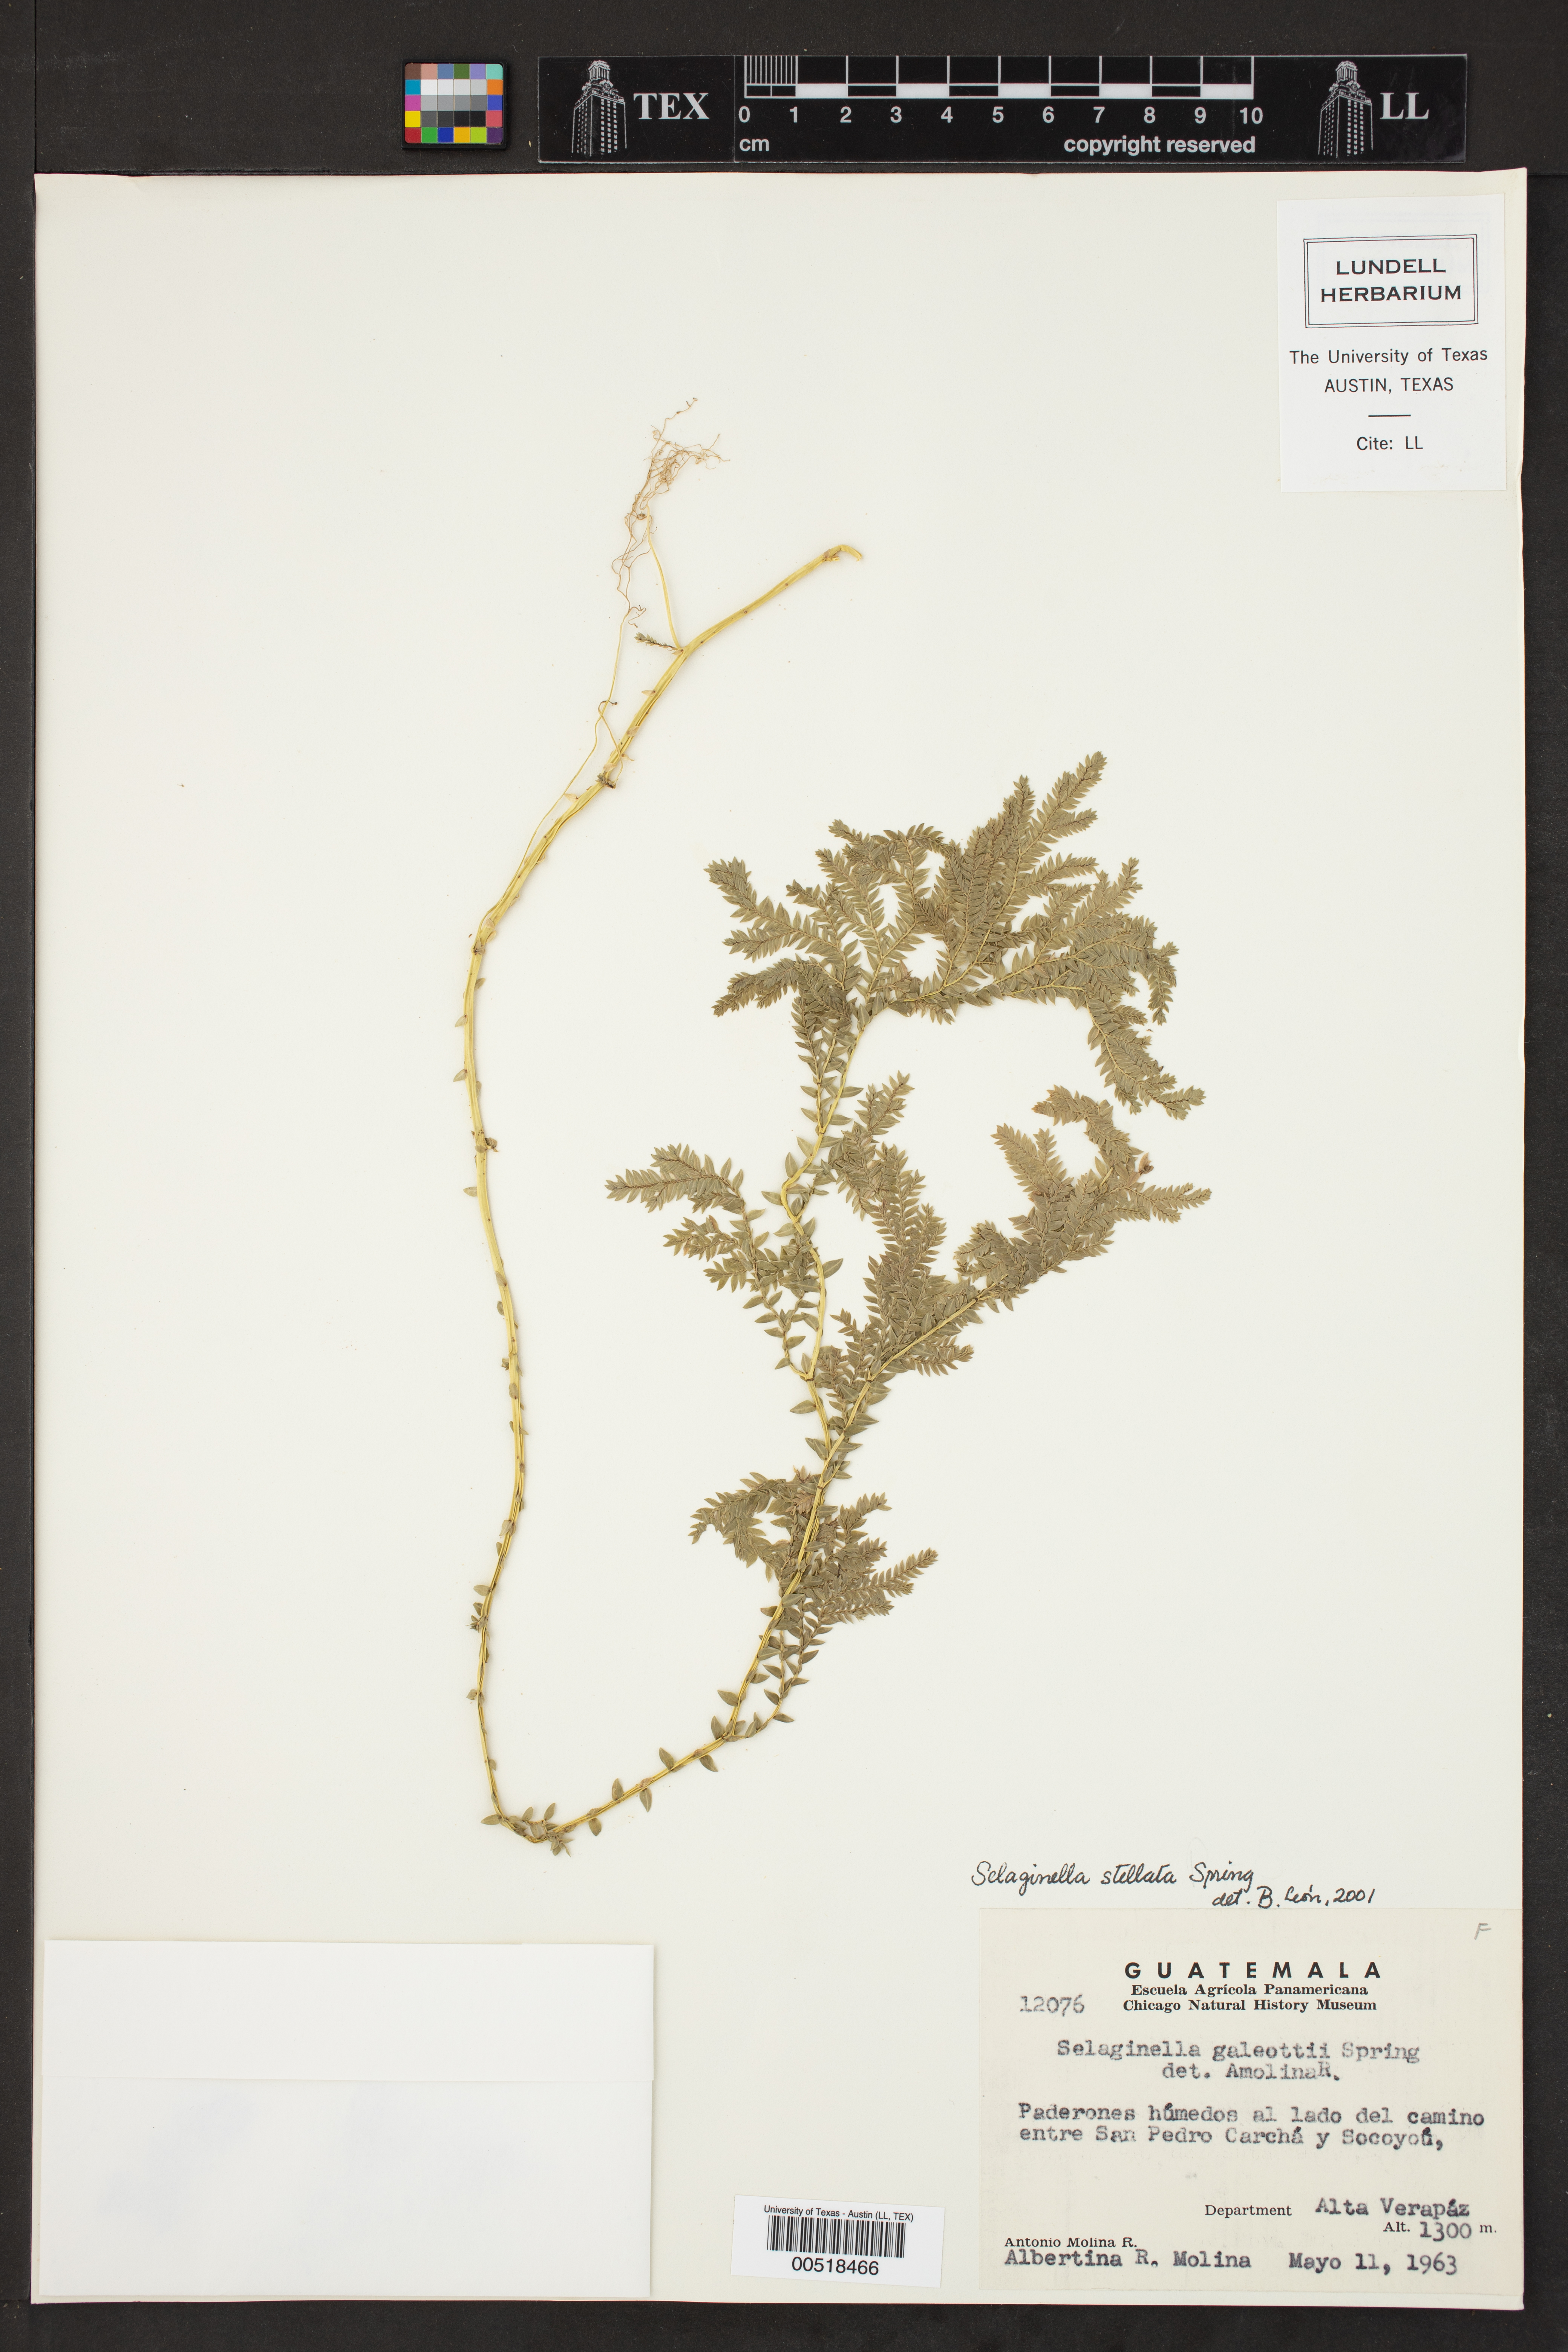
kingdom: Plantae
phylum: Tracheophyta
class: Lycopodiopsida
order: Selaginellales
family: Selaginellaceae
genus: Selaginella
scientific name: Selaginella stellata
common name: Starry spikemoss
